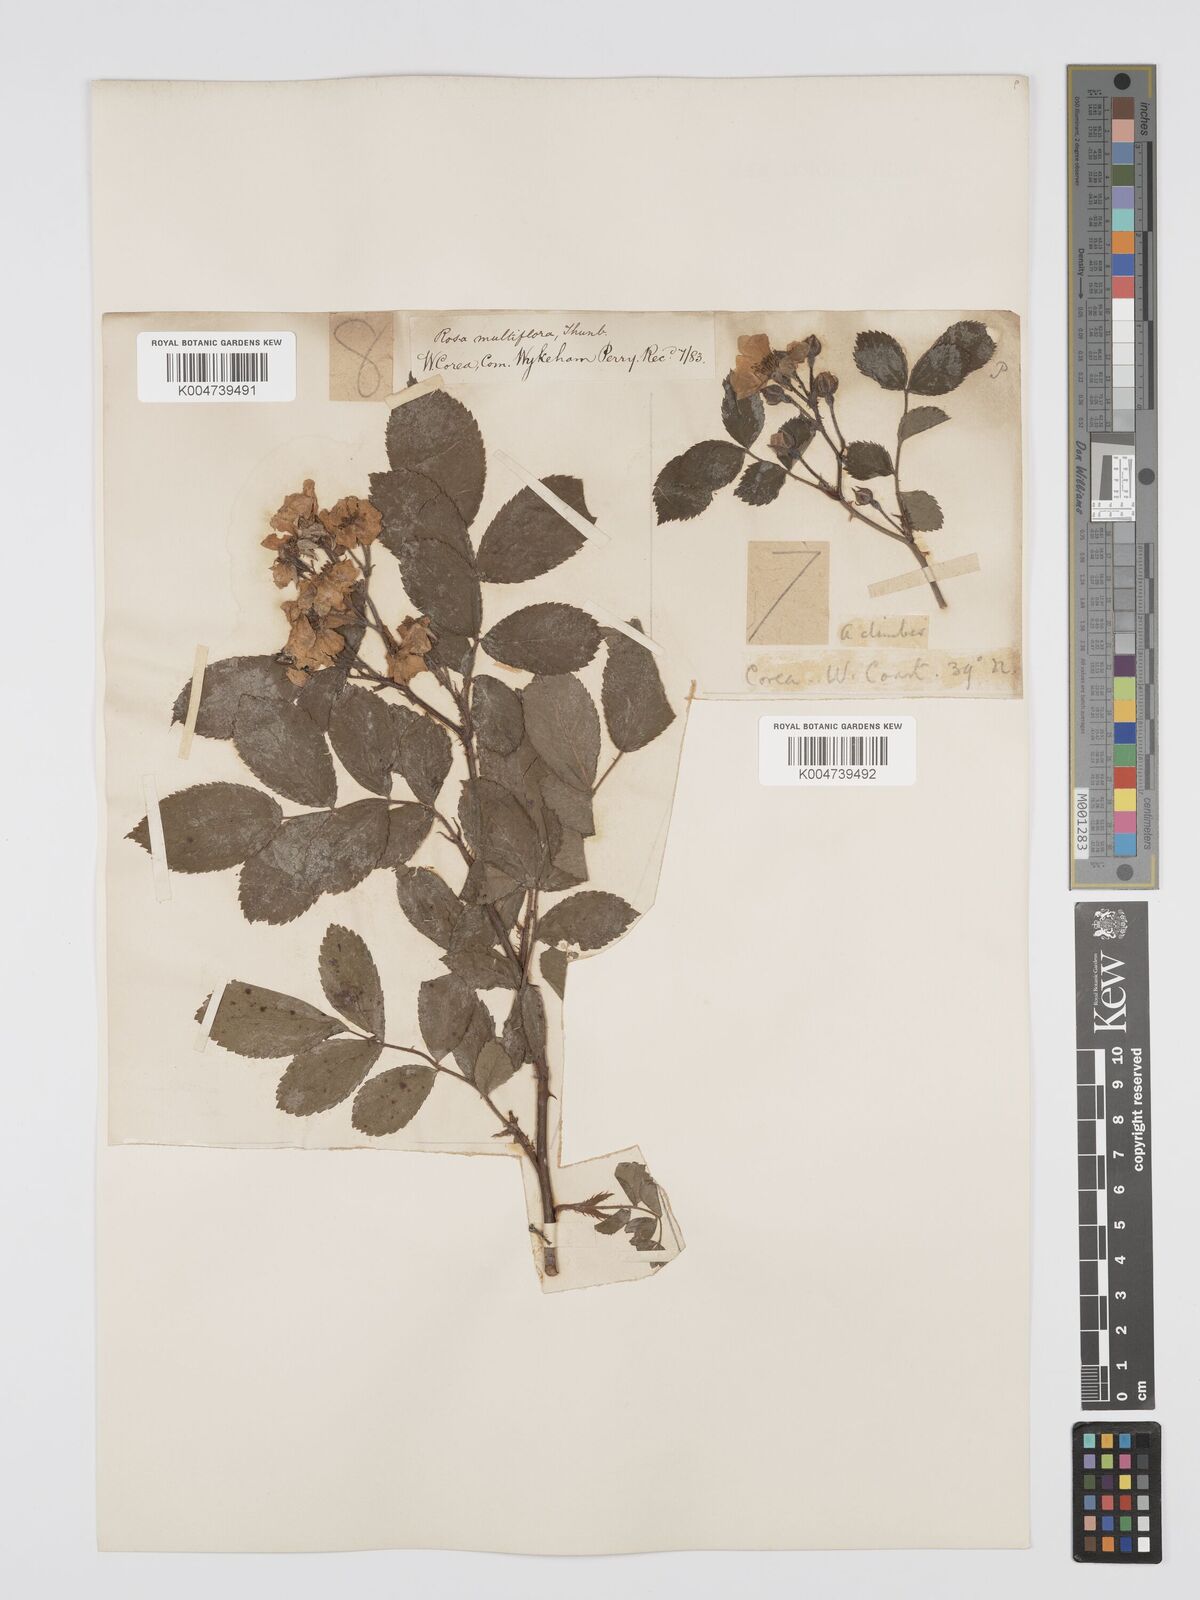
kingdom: Plantae
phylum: Tracheophyta
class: Magnoliopsida
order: Rosales
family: Rosaceae
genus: Rosa
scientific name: Rosa
